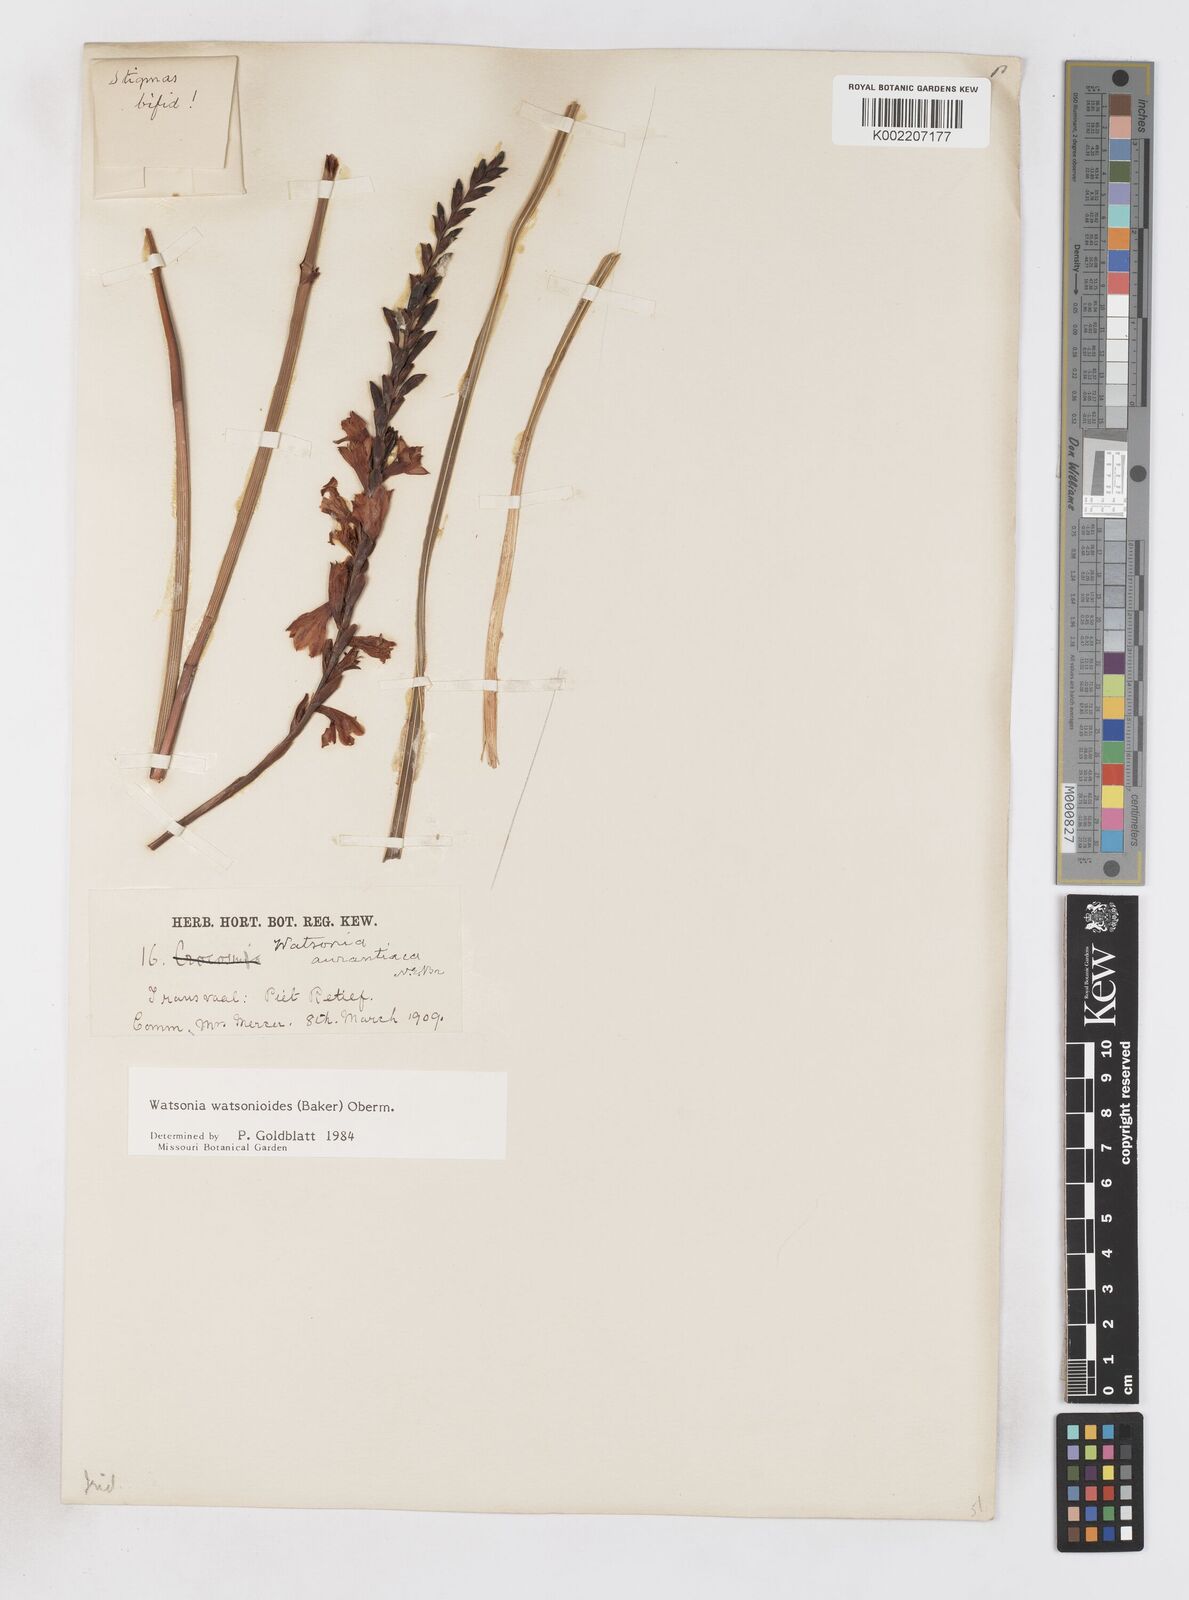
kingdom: Plantae
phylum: Tracheophyta
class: Liliopsida
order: Asparagales
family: Iridaceae
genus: Watsonia
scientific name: Watsonia watsonioides
